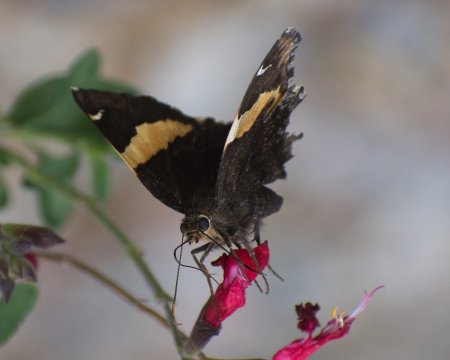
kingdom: Animalia
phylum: Arthropoda
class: Insecta
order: Lepidoptera
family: Hesperiidae
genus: Autochton
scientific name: Autochton cellus
